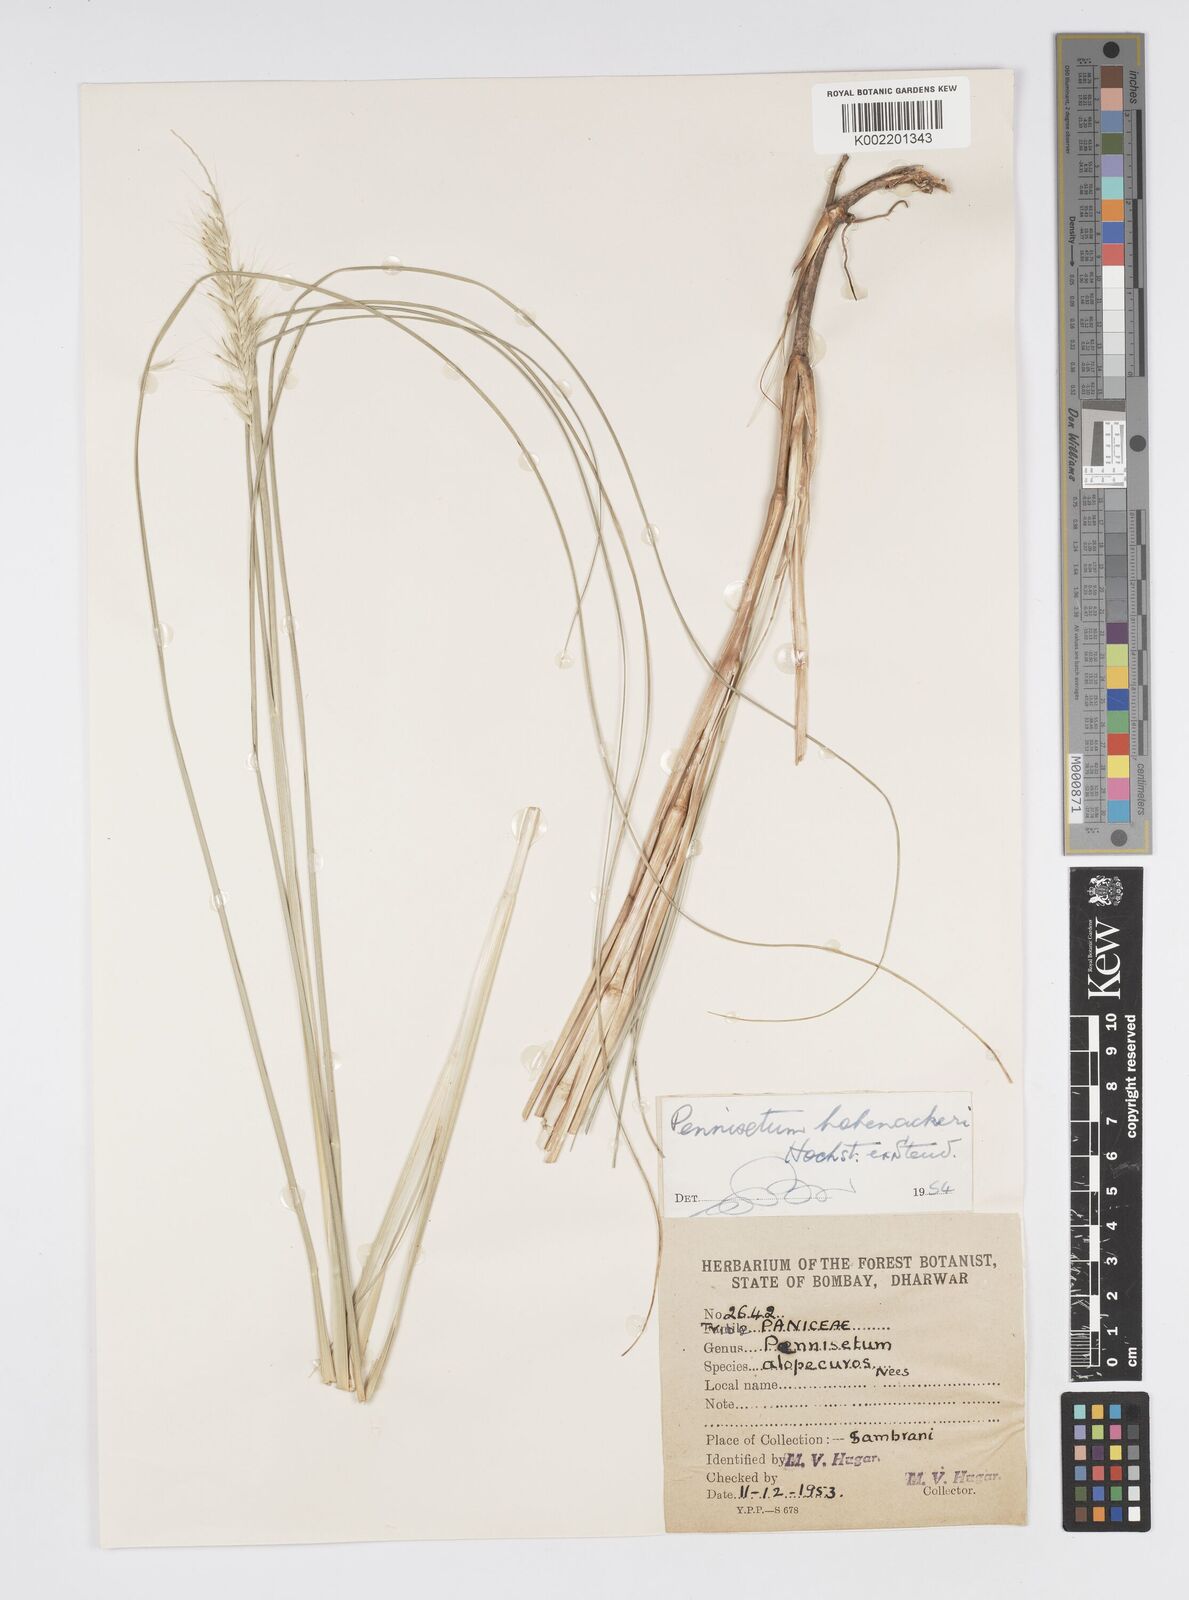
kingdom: Plantae
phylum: Tracheophyta
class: Liliopsida
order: Poales
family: Poaceae
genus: Cenchrus
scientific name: Cenchrus hohenackeri
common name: Moya grass
